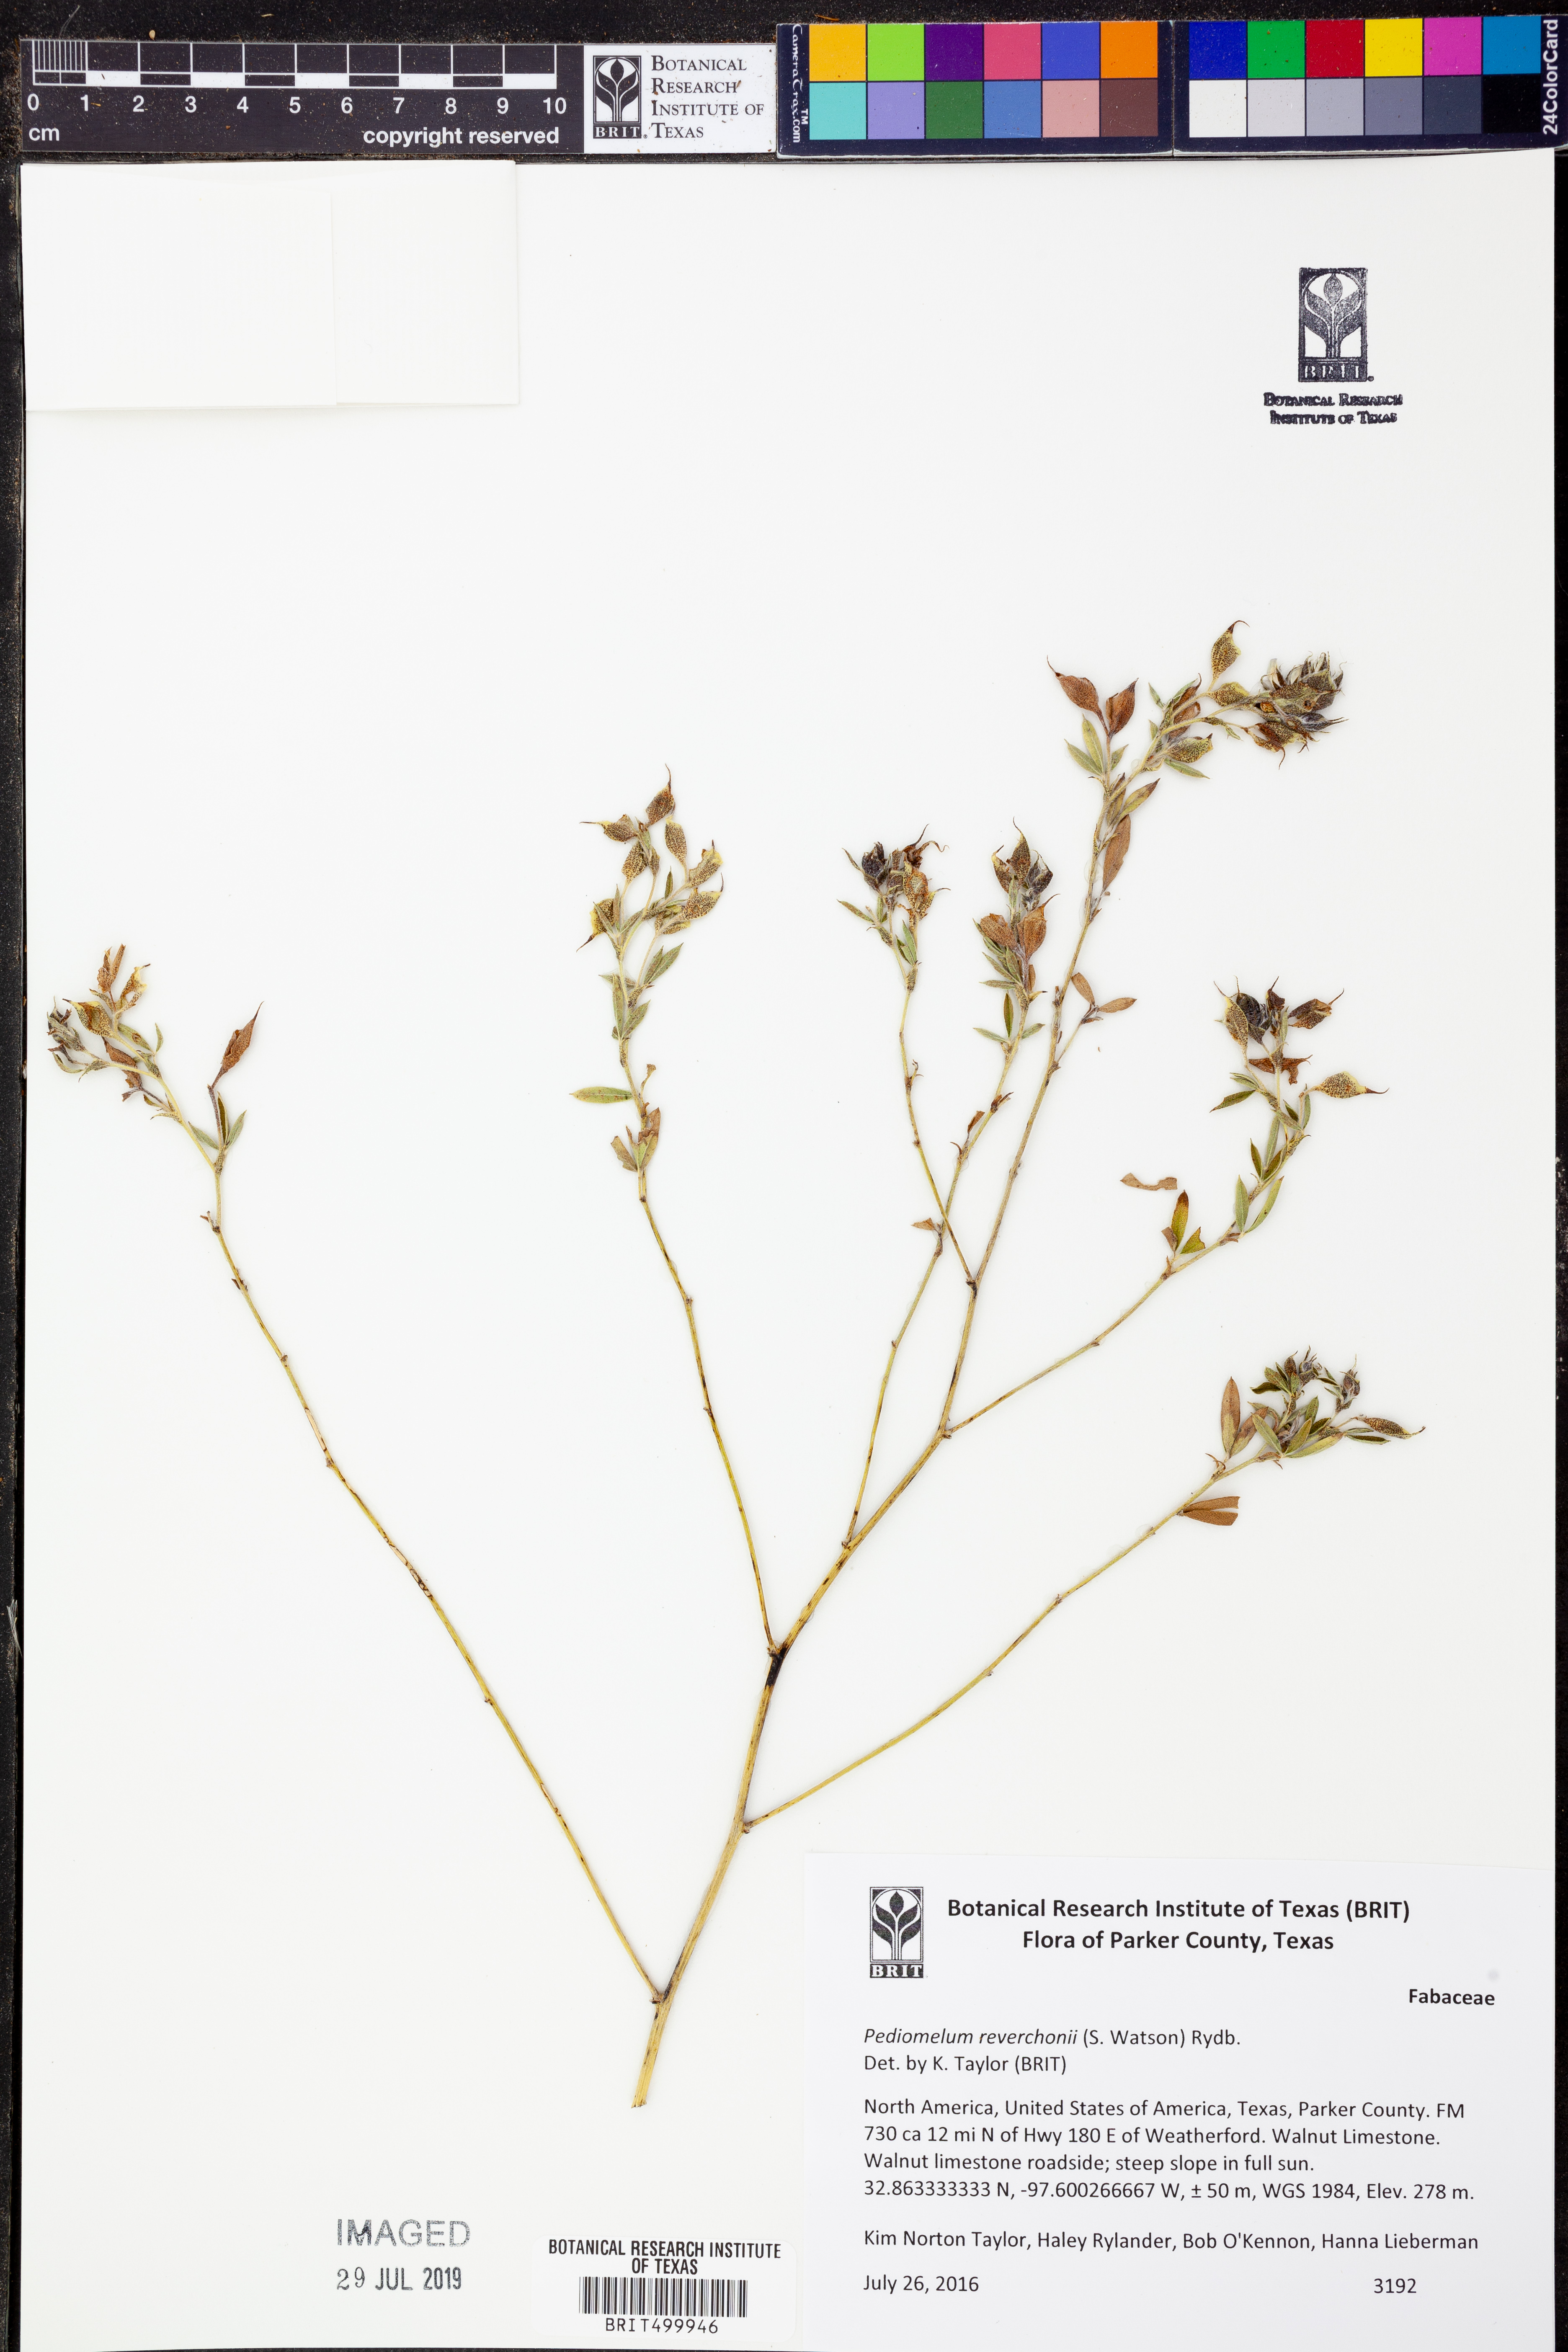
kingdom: Plantae
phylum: Tracheophyta
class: Magnoliopsida
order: Fabales
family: Fabaceae
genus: Pediomelum
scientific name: Pediomelum reverchonii
